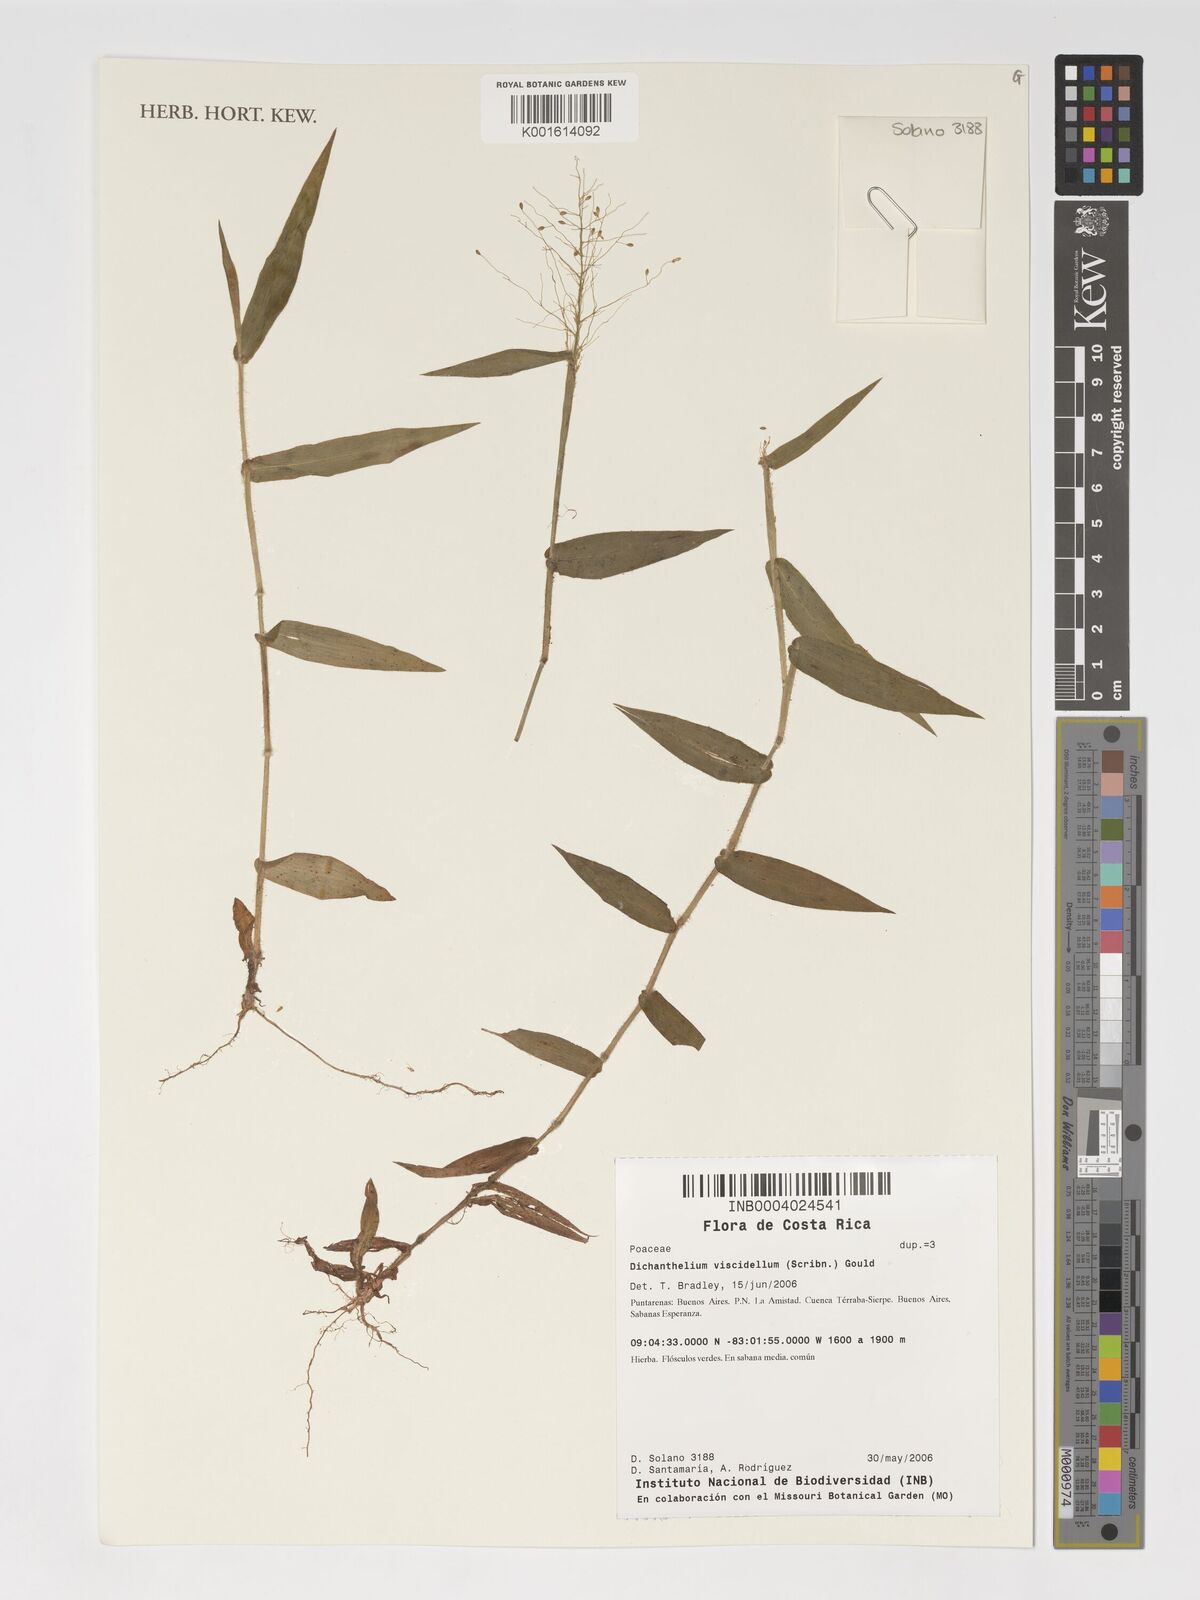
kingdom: Plantae
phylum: Tracheophyta
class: Liliopsida
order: Poales
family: Poaceae
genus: Dichanthelium
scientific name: Dichanthelium viscidellum
